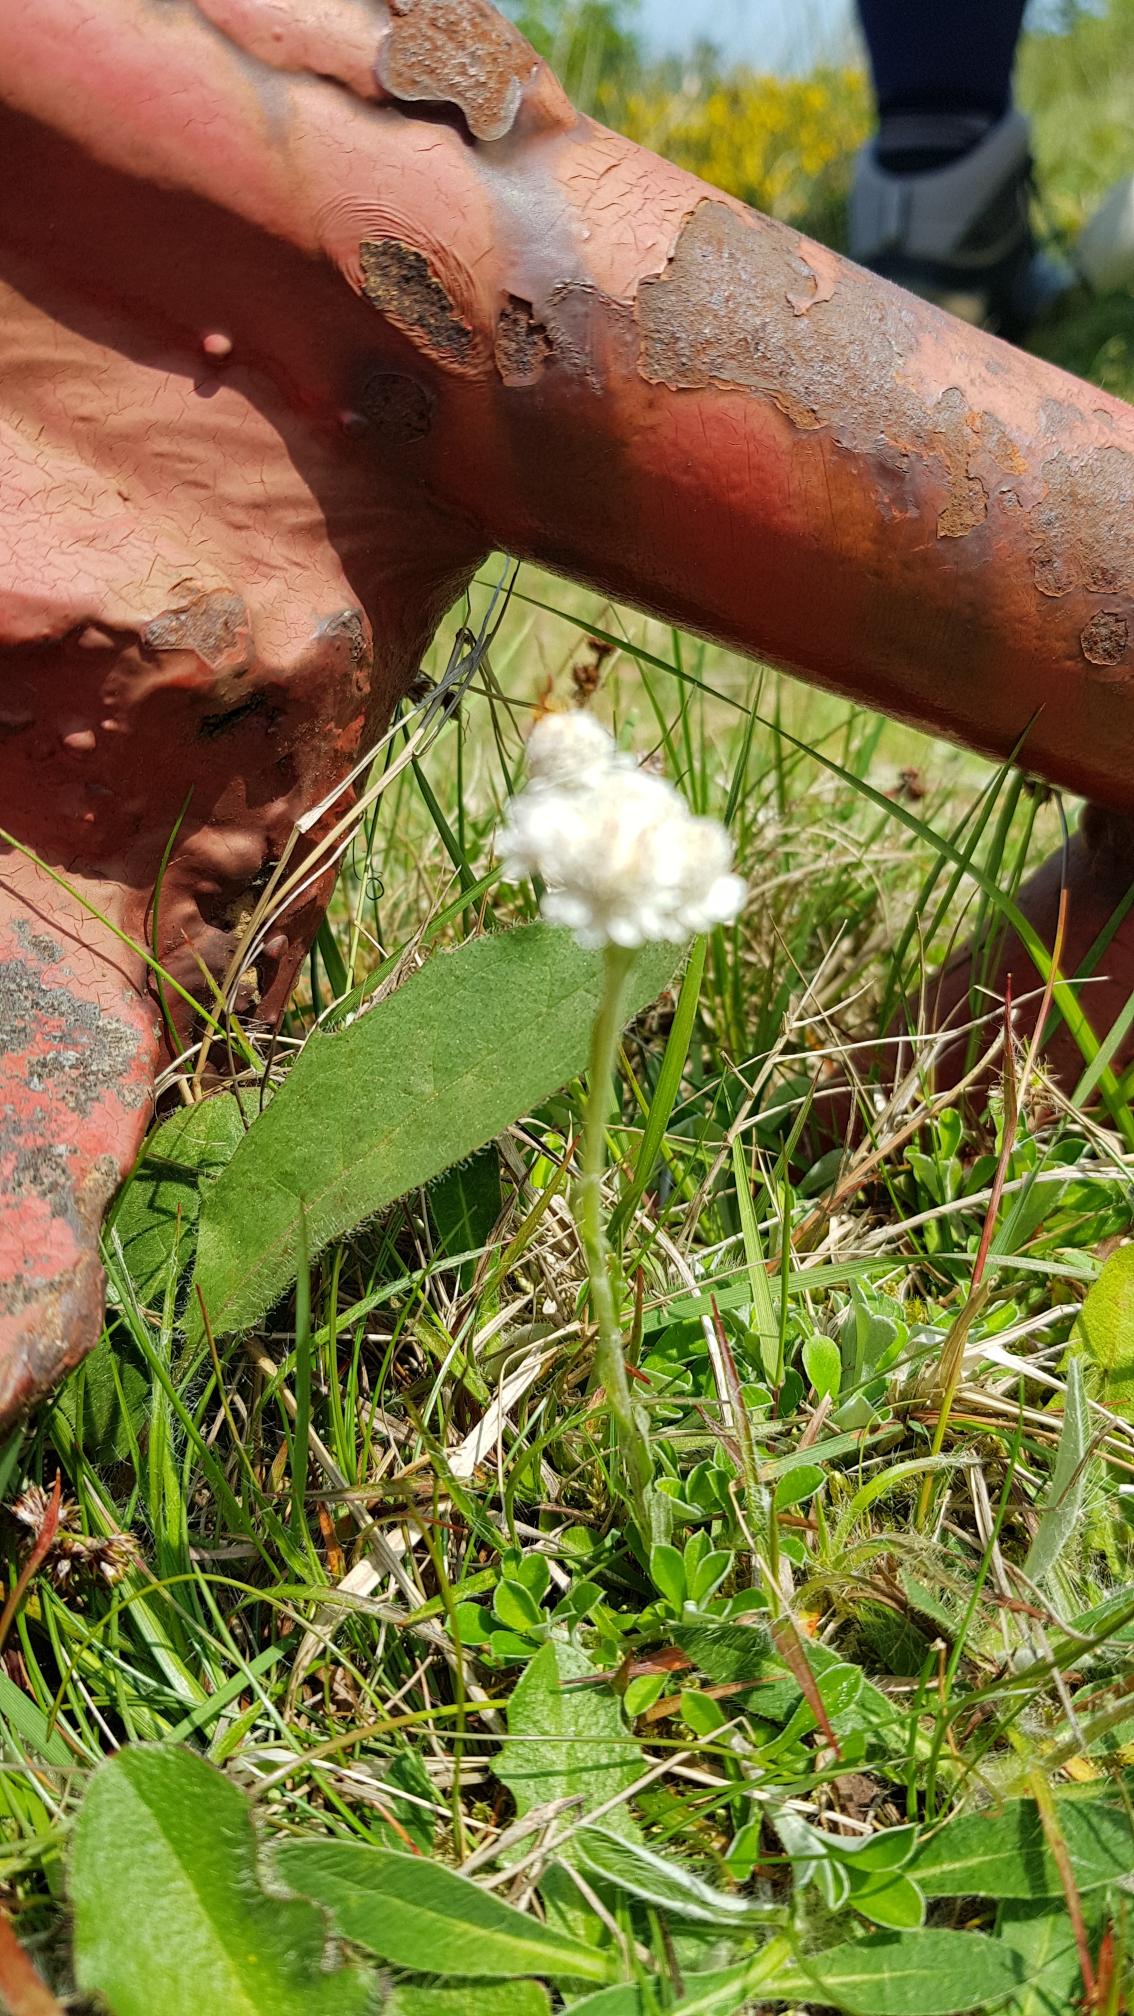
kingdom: Plantae
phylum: Tracheophyta
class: Magnoliopsida
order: Asterales
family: Asteraceae
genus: Antennaria
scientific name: Antennaria dioica
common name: Kattefod
